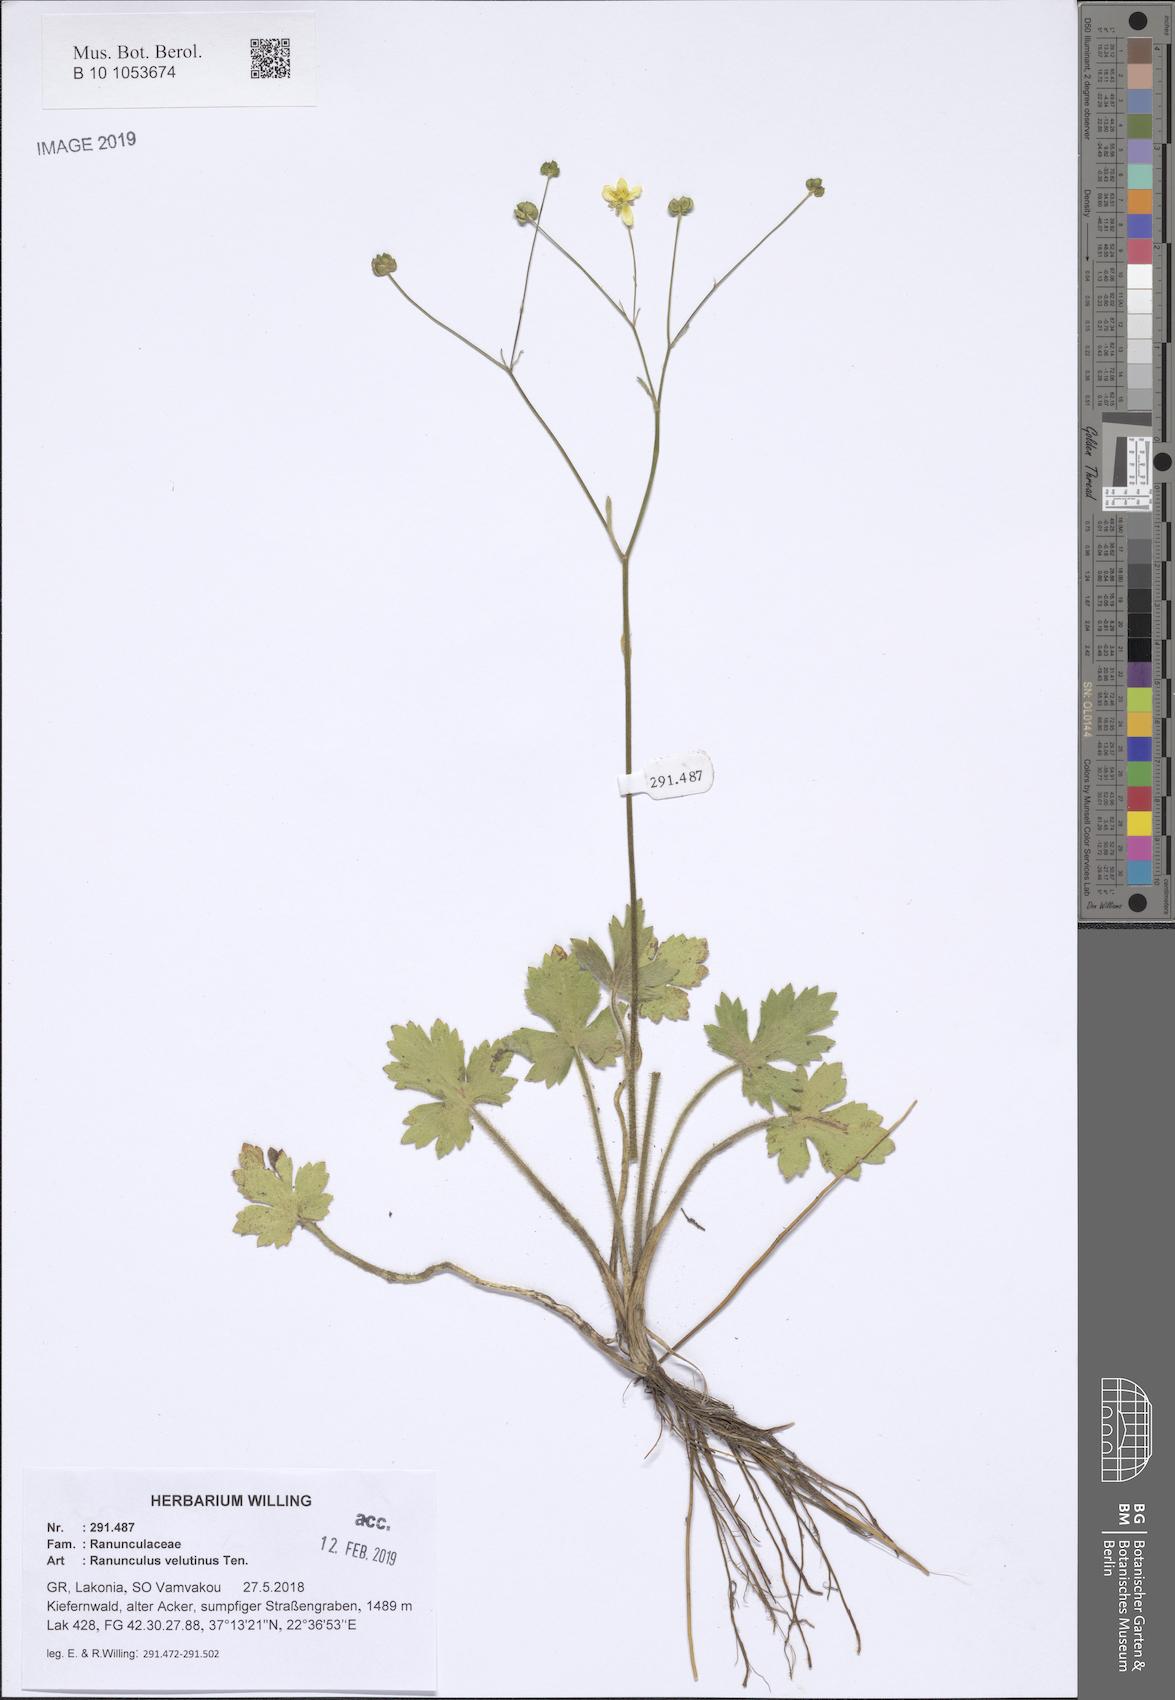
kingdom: Plantae
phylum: Tracheophyta
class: Magnoliopsida
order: Ranunculales
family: Ranunculaceae
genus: Ranunculus
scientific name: Ranunculus velutinus
